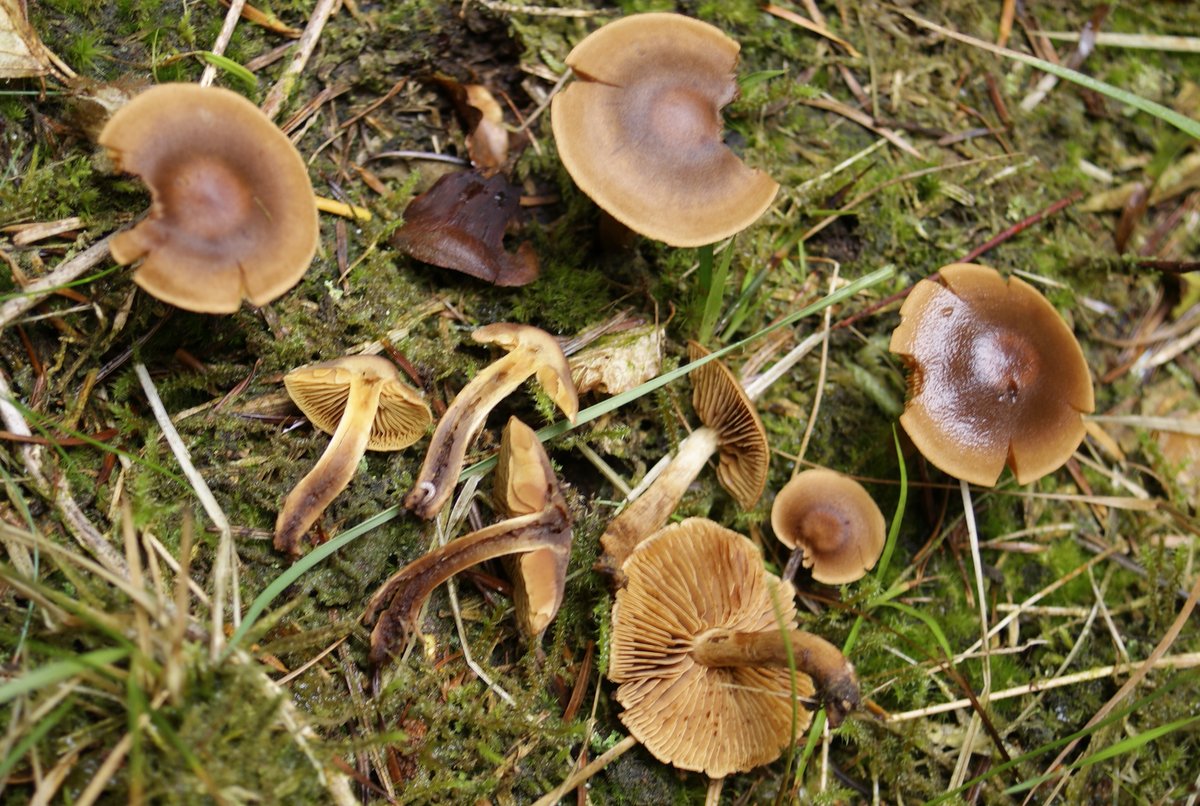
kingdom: Fungi
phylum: Basidiomycota
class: Agaricomycetes
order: Agaricales
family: Cortinariaceae
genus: Cortinarius
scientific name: Cortinarius
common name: gulbladet slørhat
